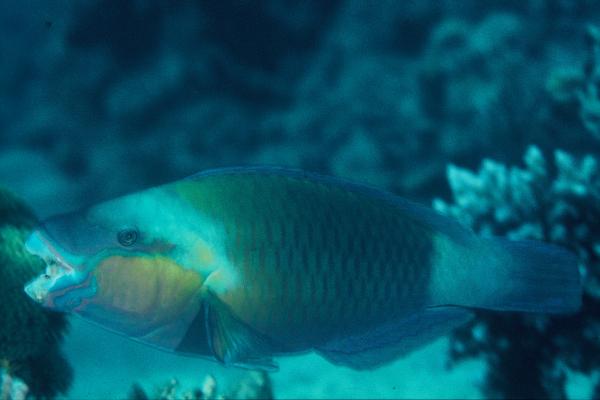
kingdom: Animalia
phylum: Chordata
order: Perciformes
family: Scaridae
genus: Chlorurus
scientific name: Chlorurus sordidus
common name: Bullethead parrotfish
